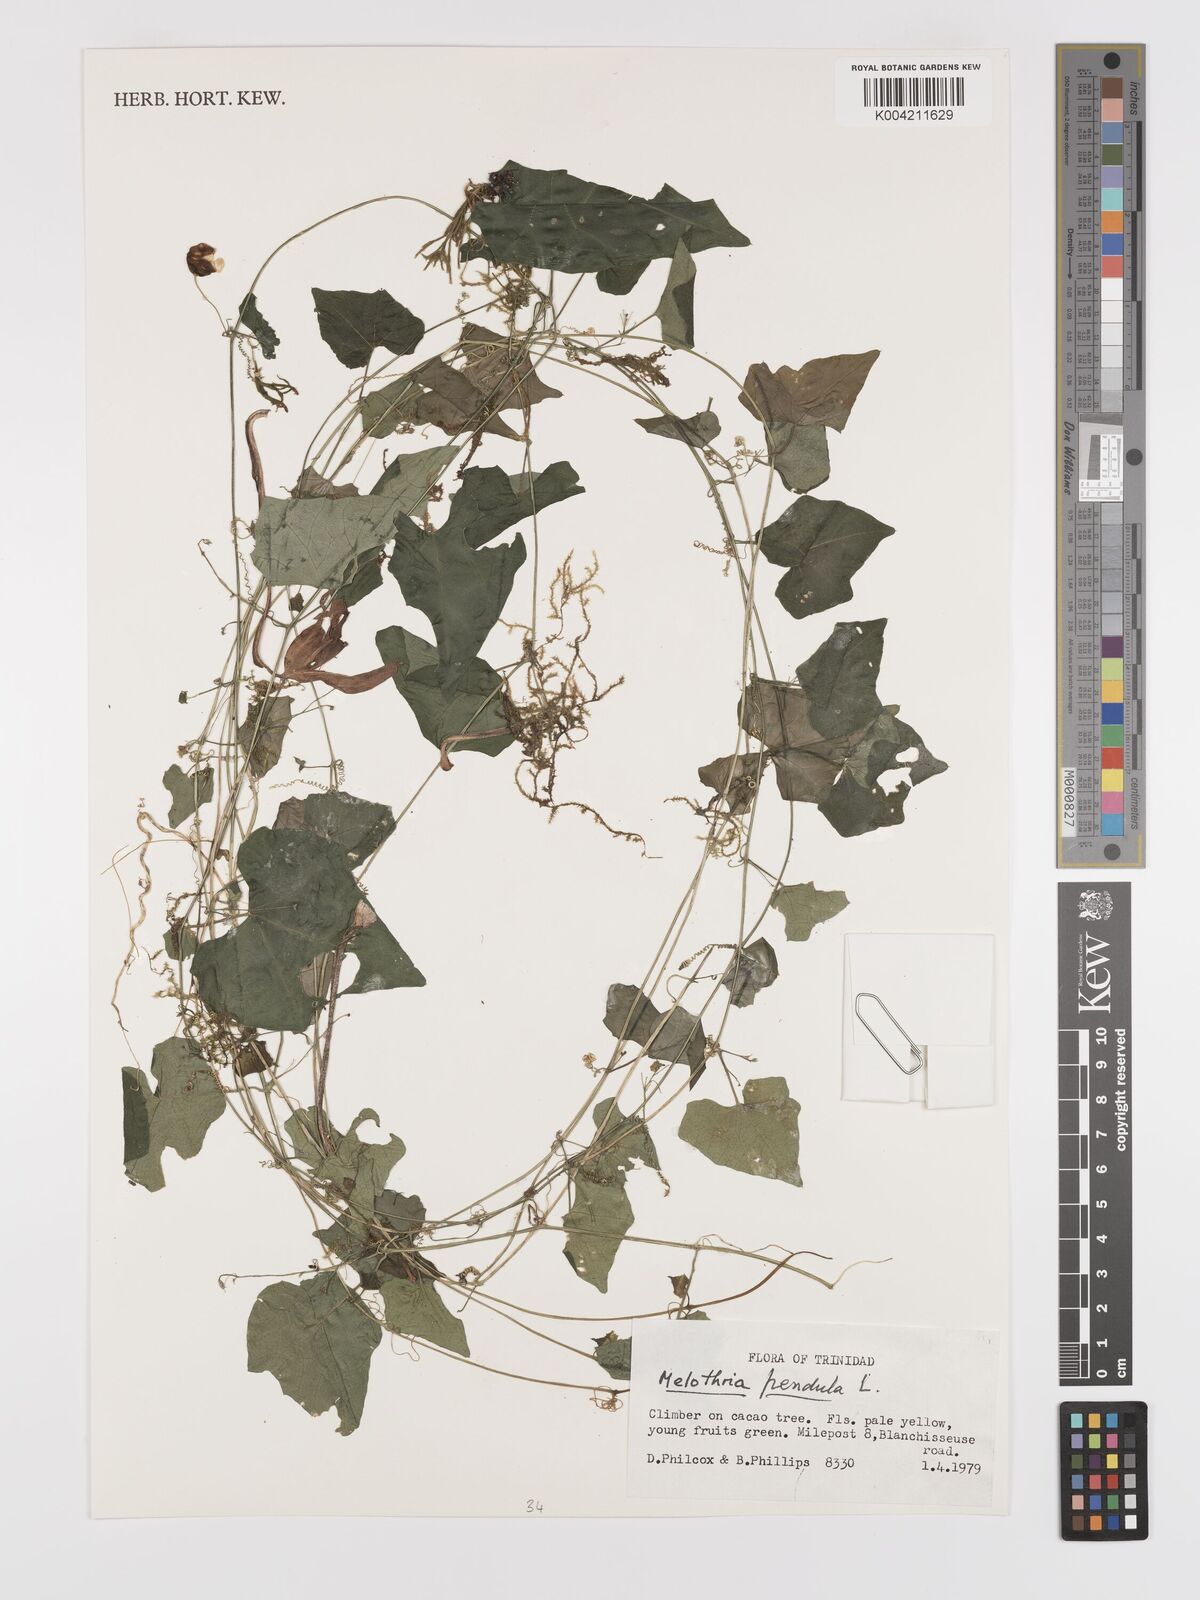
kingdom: Plantae
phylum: Tracheophyta
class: Magnoliopsida
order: Cucurbitales
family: Cucurbitaceae
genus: Melothria
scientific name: Melothria
